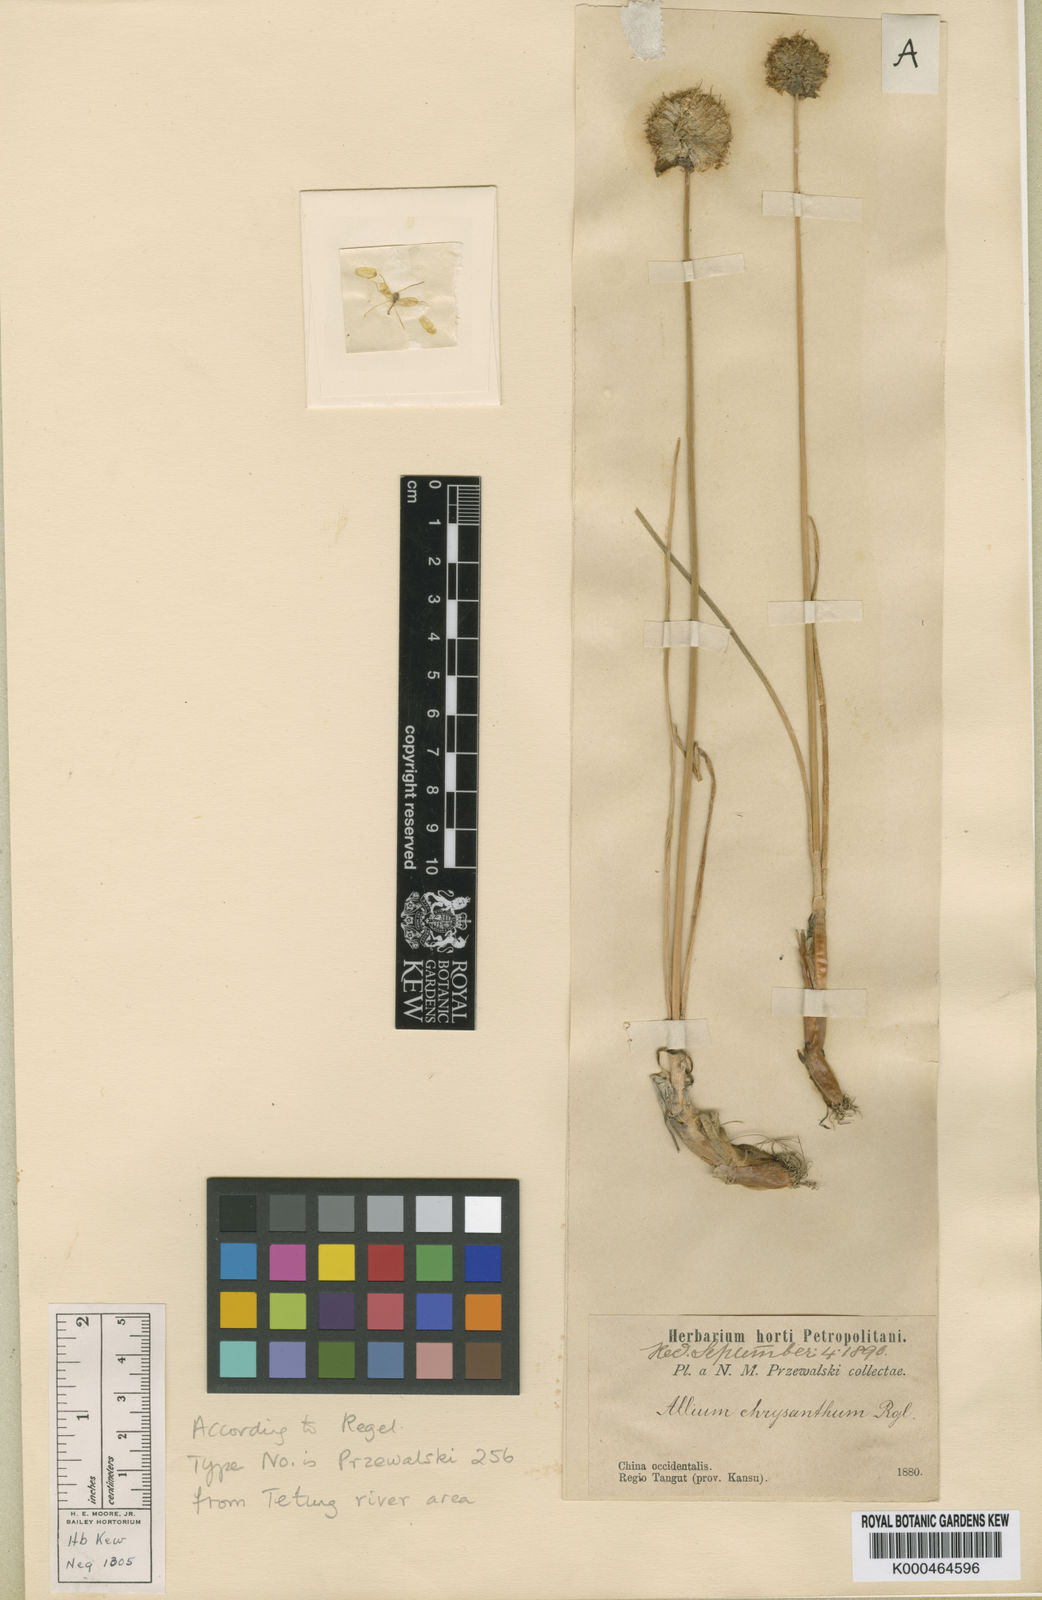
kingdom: Plantae
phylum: Tracheophyta
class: Liliopsida
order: Asparagales
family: Amaryllidaceae
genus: Allium
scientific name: Allium chrysanthum
